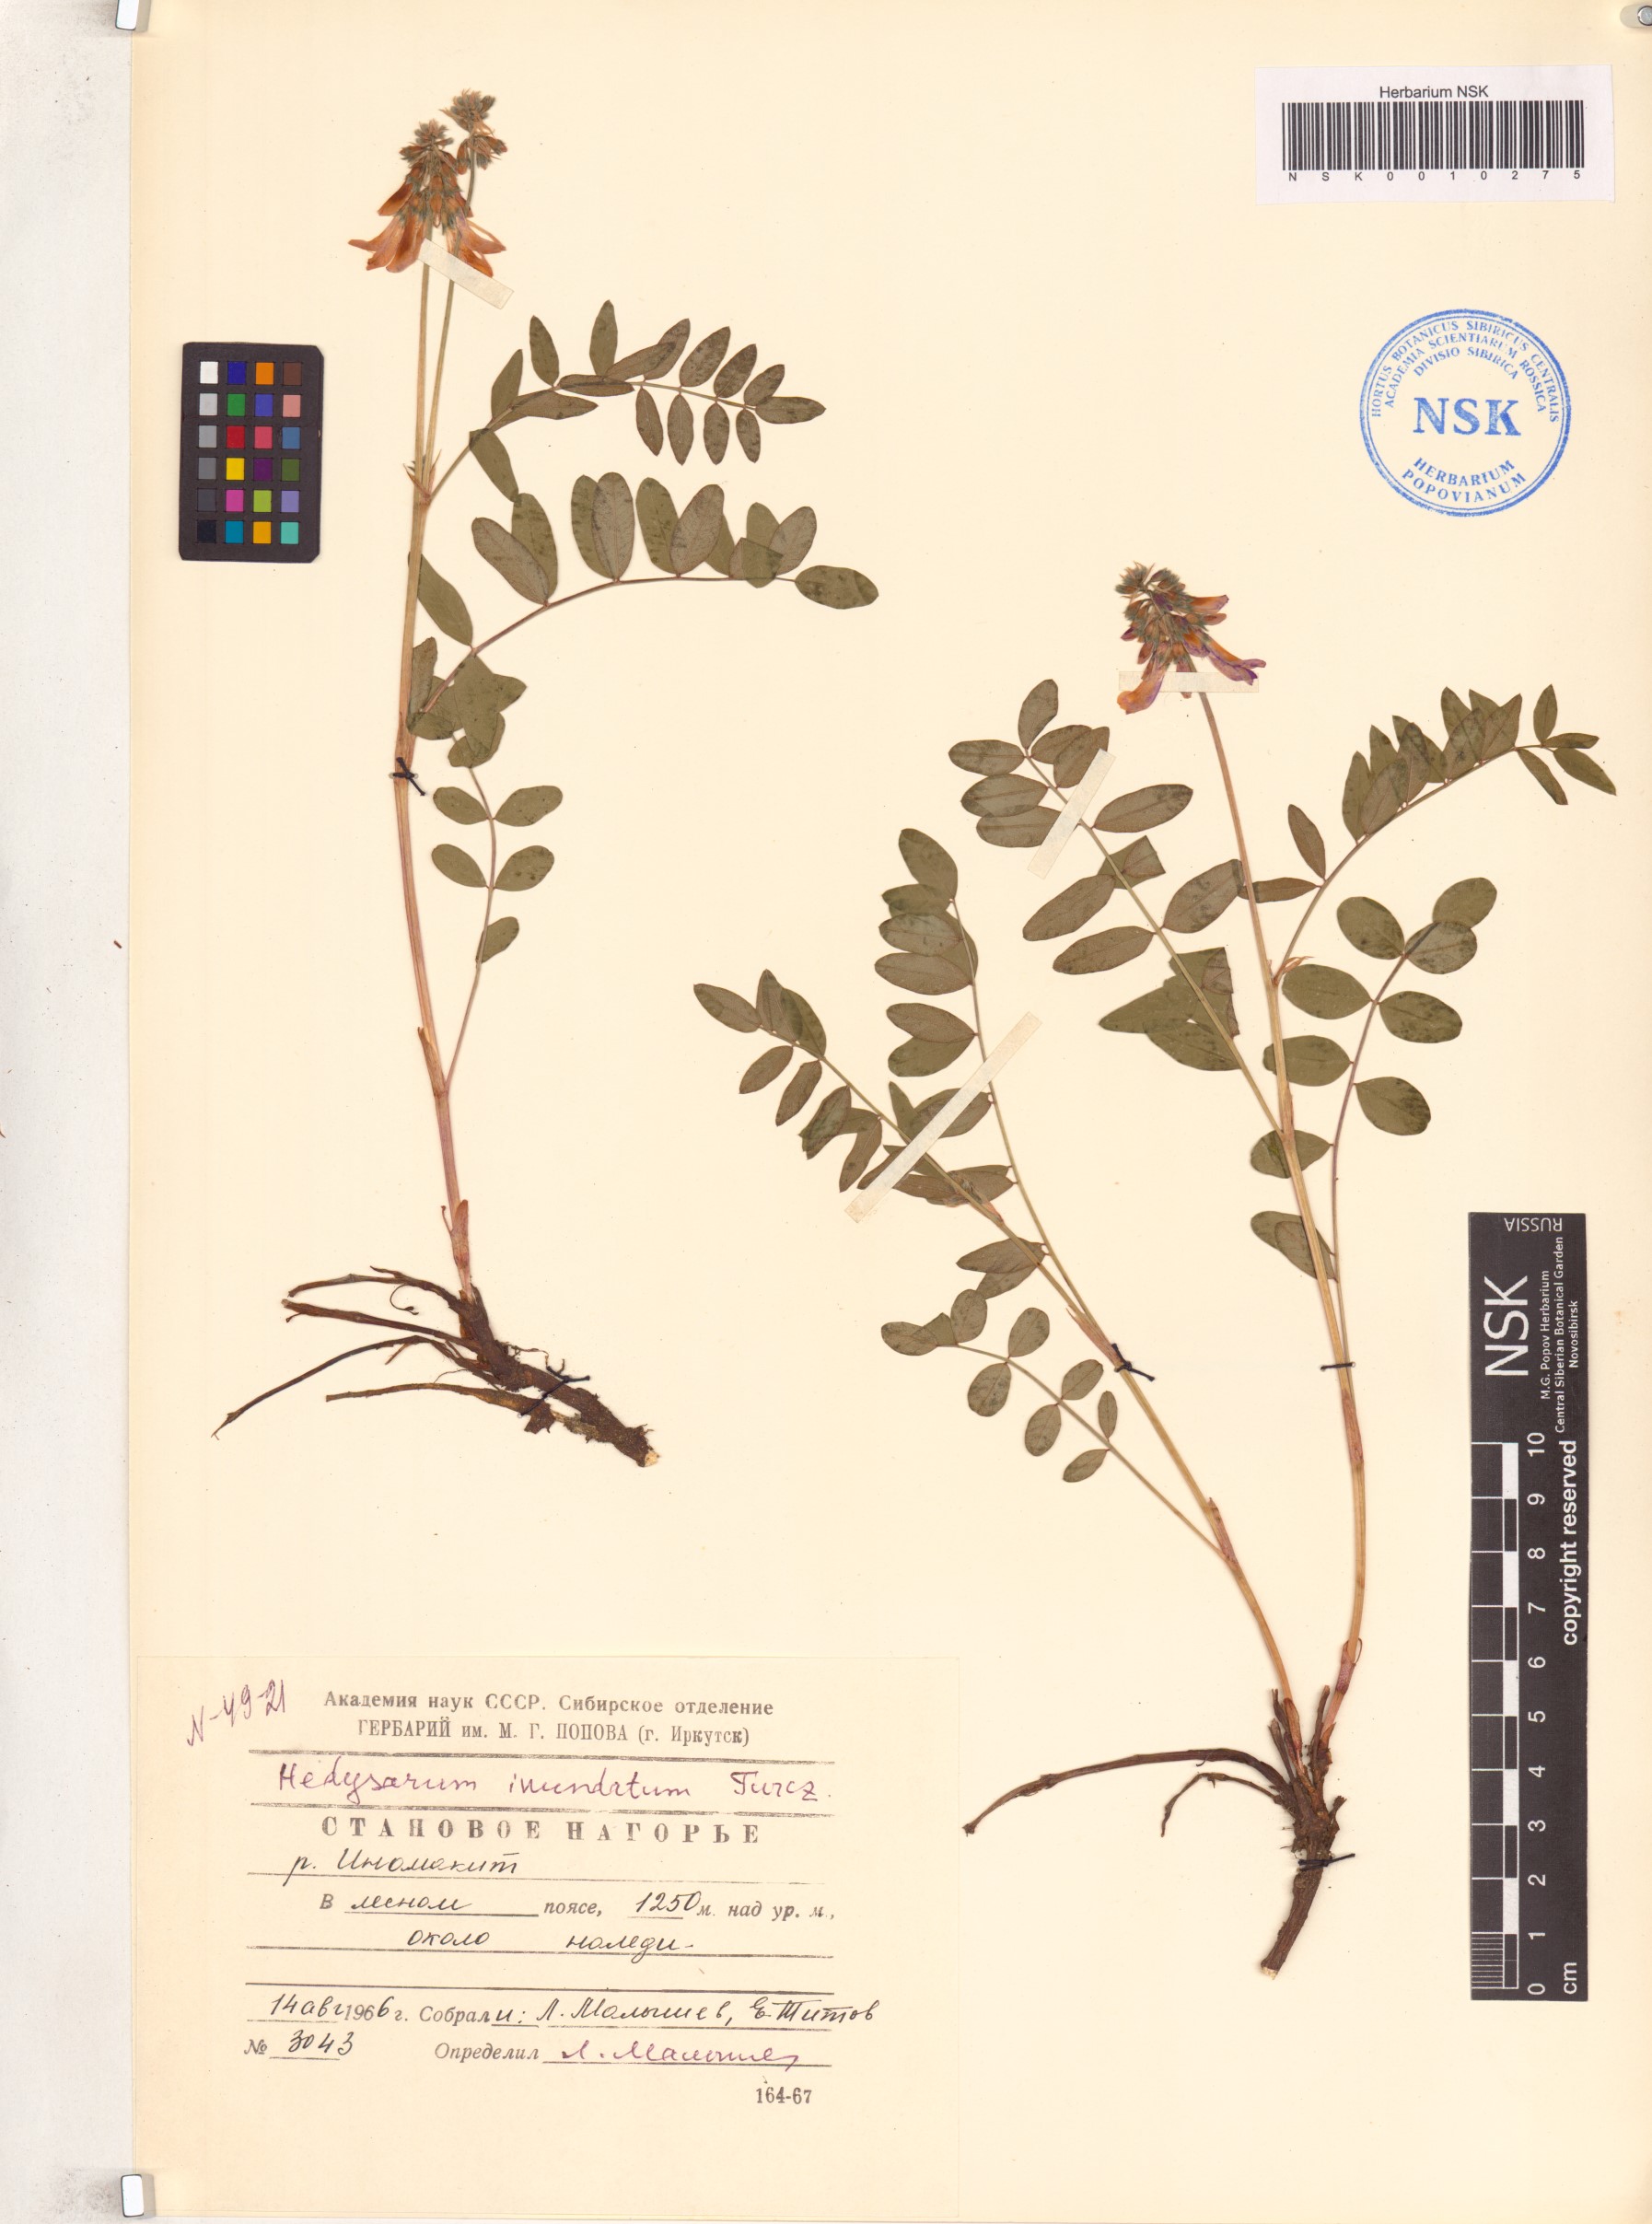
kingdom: Plantae
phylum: Tracheophyta
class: Magnoliopsida
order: Fabales
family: Fabaceae
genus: Hedysarum
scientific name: Hedysarum inundatum
